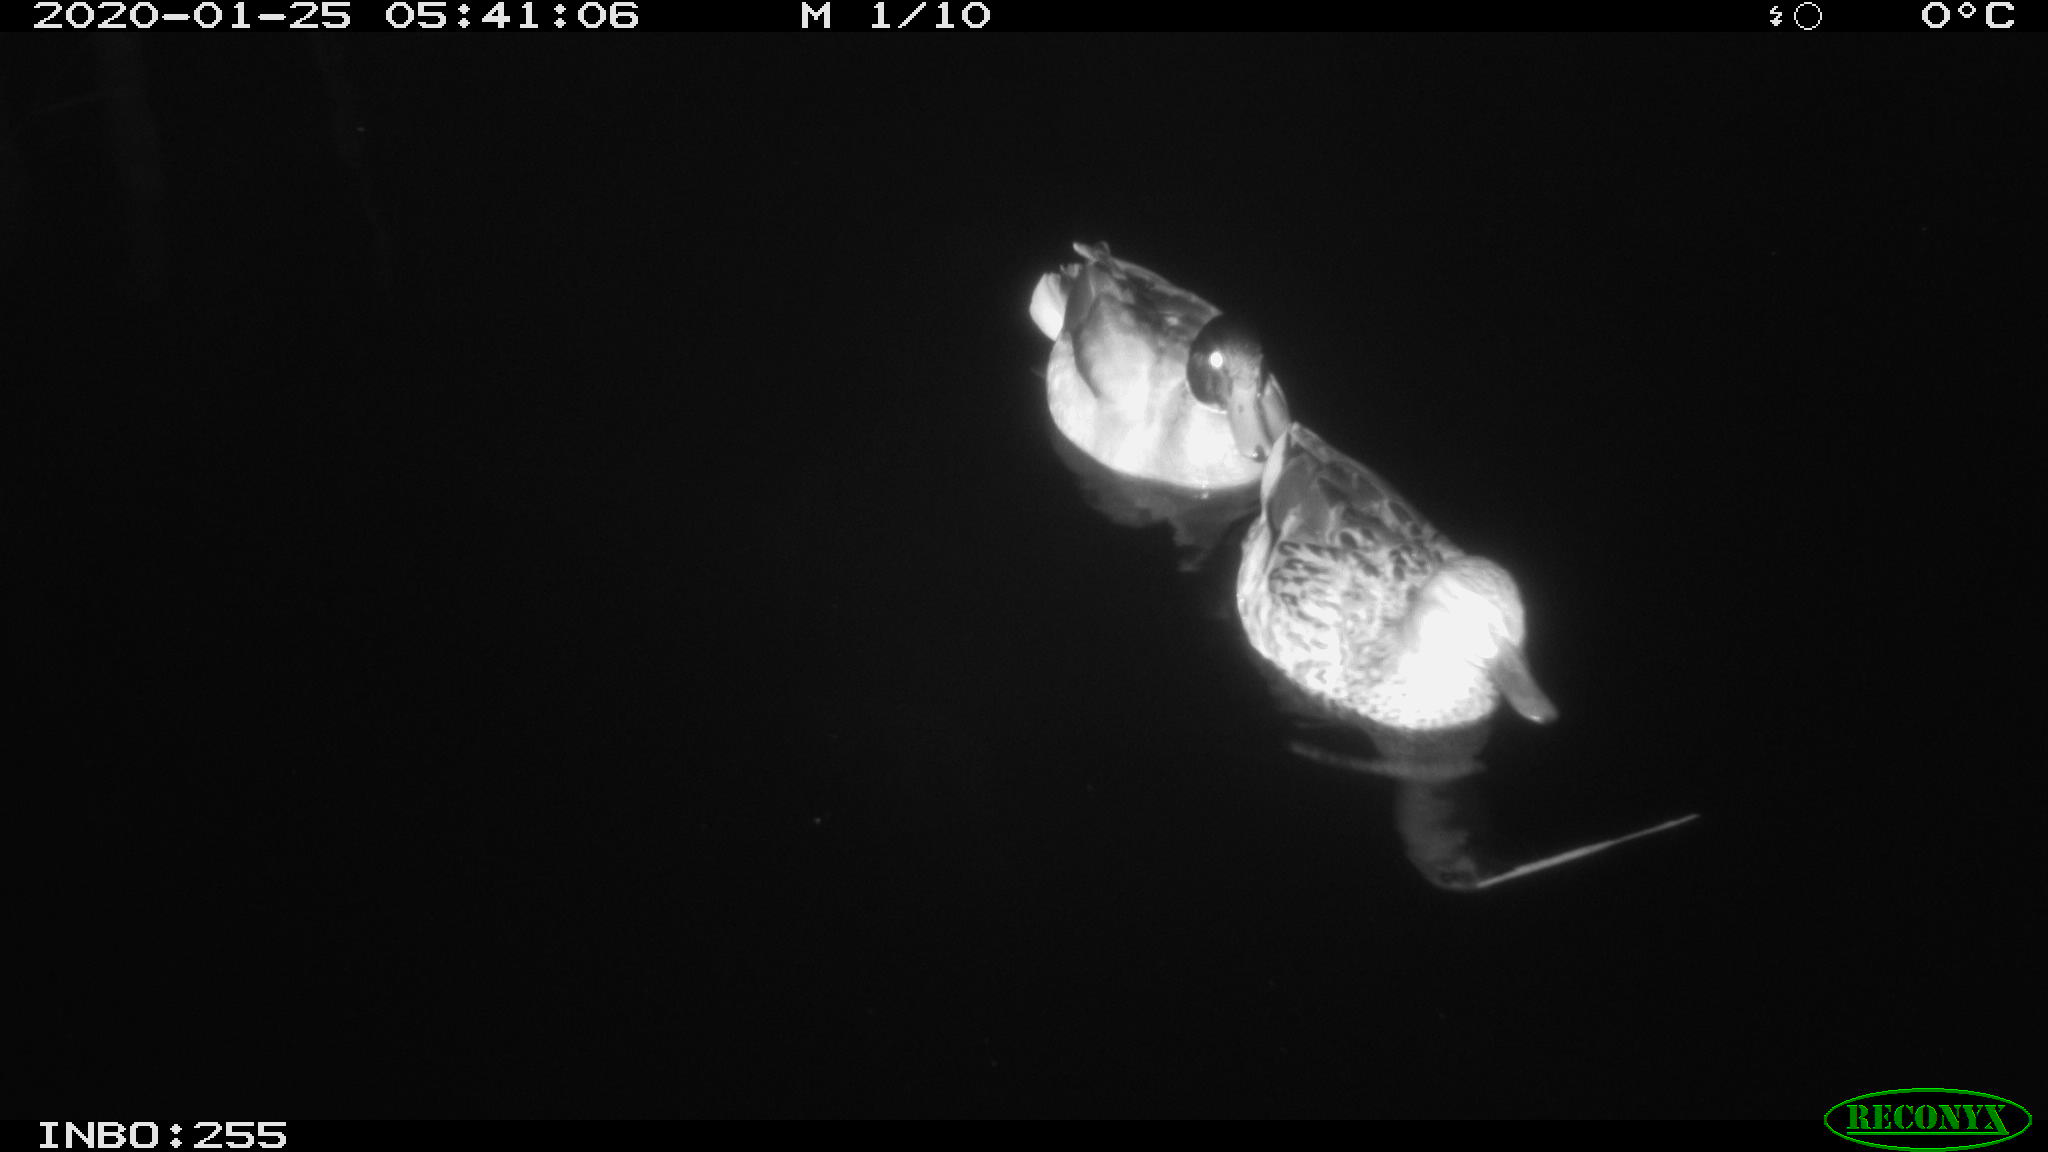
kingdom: Animalia
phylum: Chordata
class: Aves
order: Anseriformes
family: Anatidae
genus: Anas
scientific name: Anas platyrhynchos
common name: Mallard
